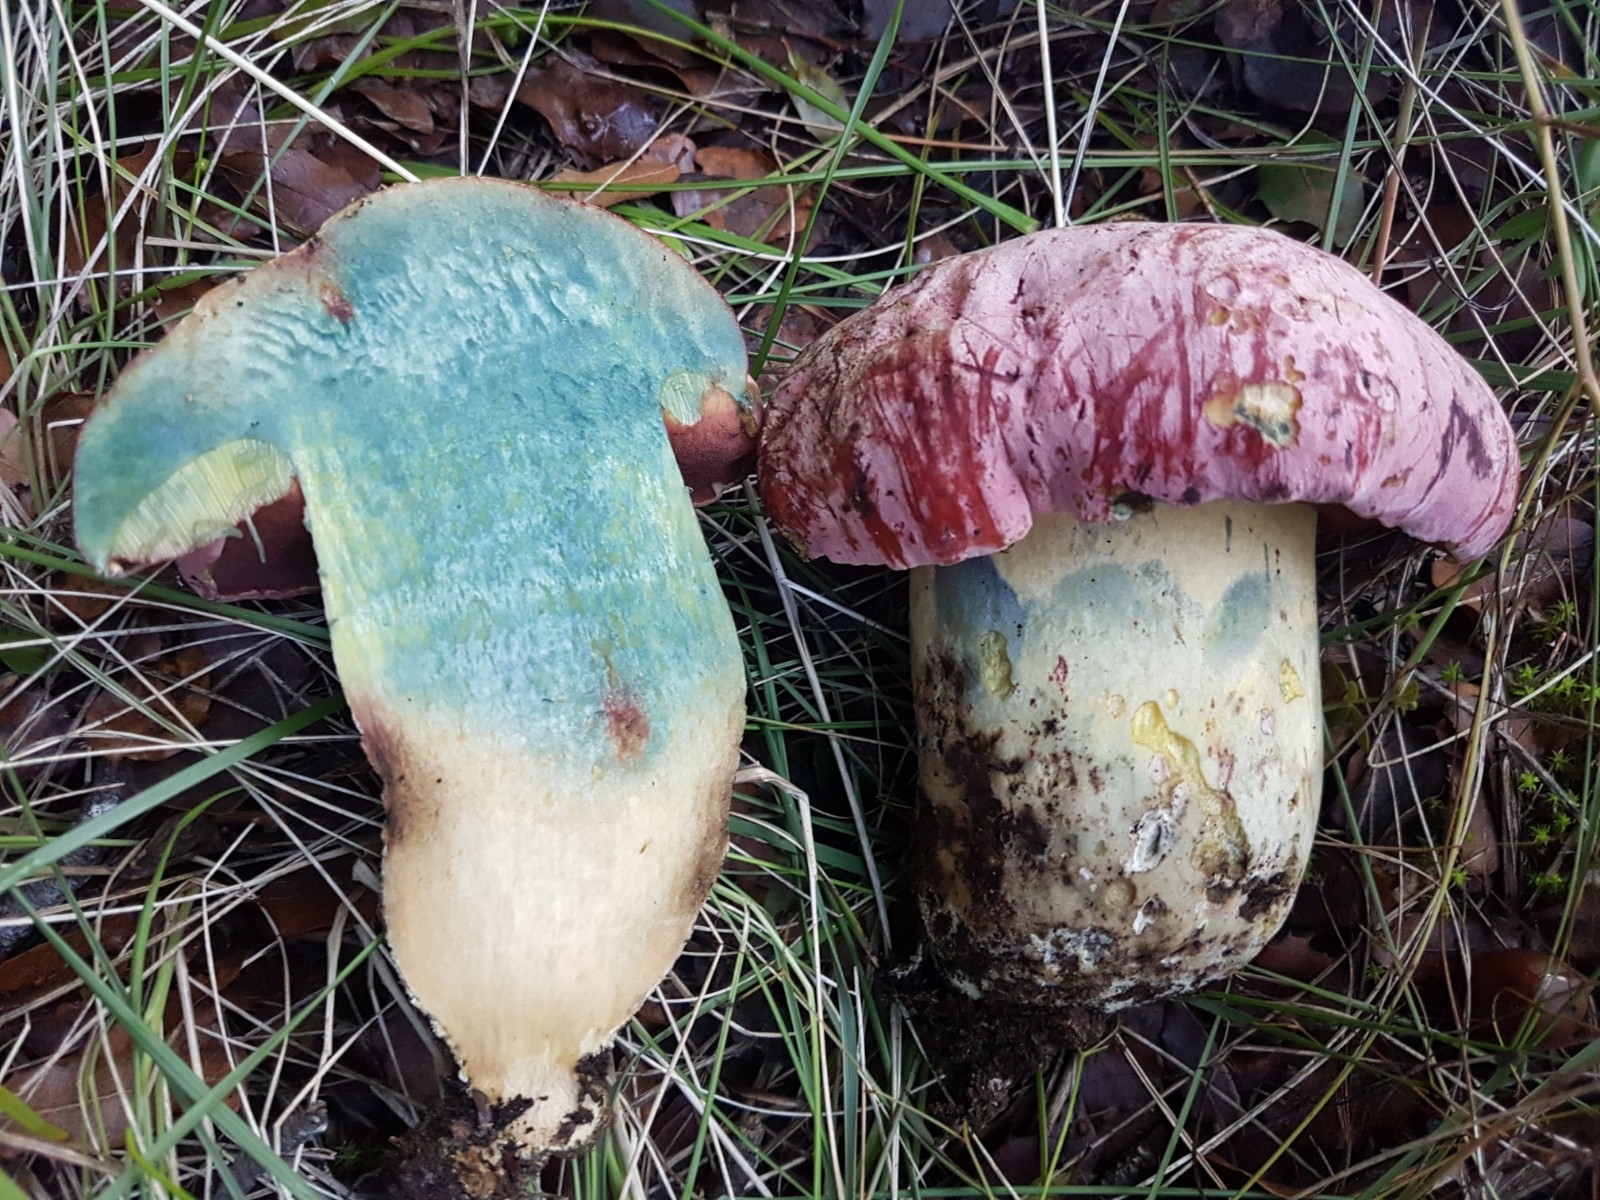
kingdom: Fungi
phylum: Basidiomycota
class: Agaricomycetes
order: Boletales
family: Boletaceae
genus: Rubroboletus
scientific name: Rubroboletus lupinus
